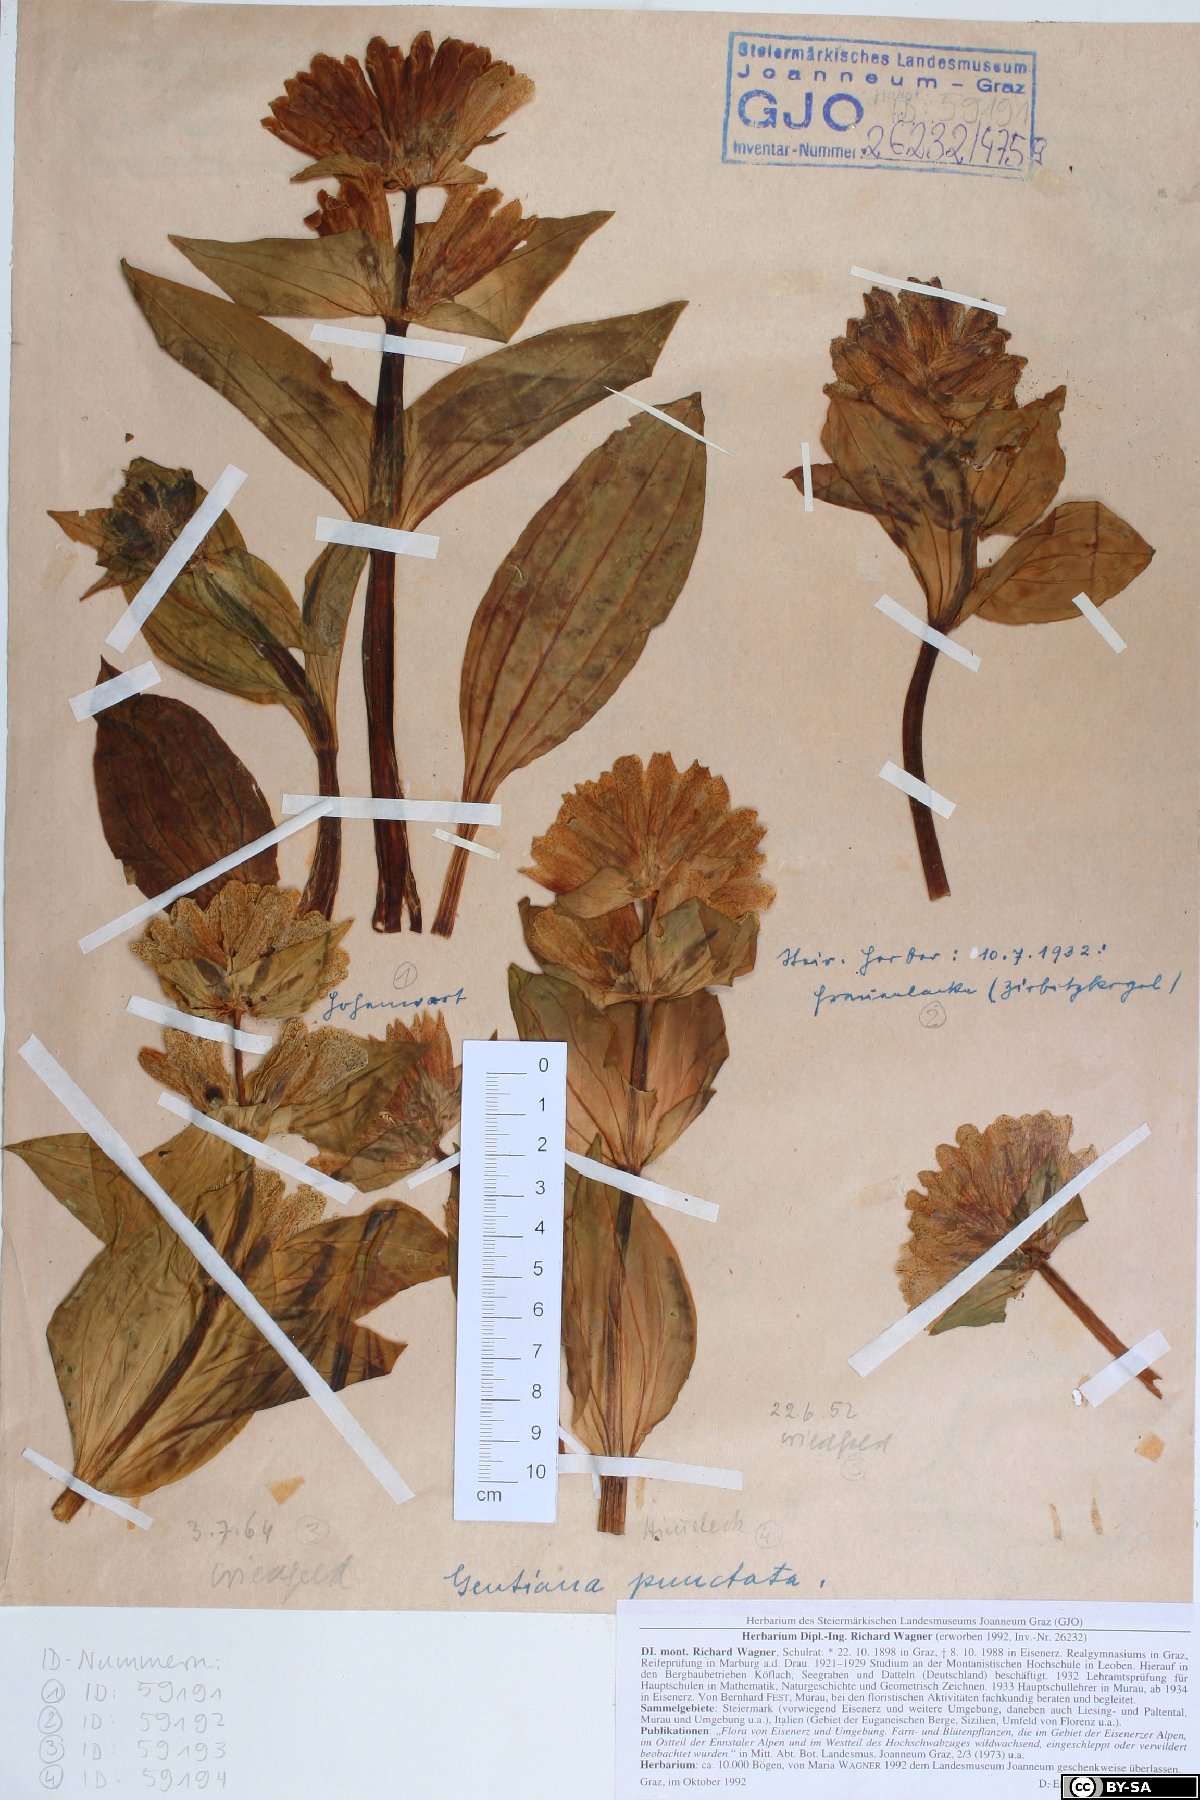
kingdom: Plantae
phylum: Tracheophyta
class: Magnoliopsida
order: Gentianales
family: Gentianaceae
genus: Gentiana
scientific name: Gentiana punctata
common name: Spotted gentian
